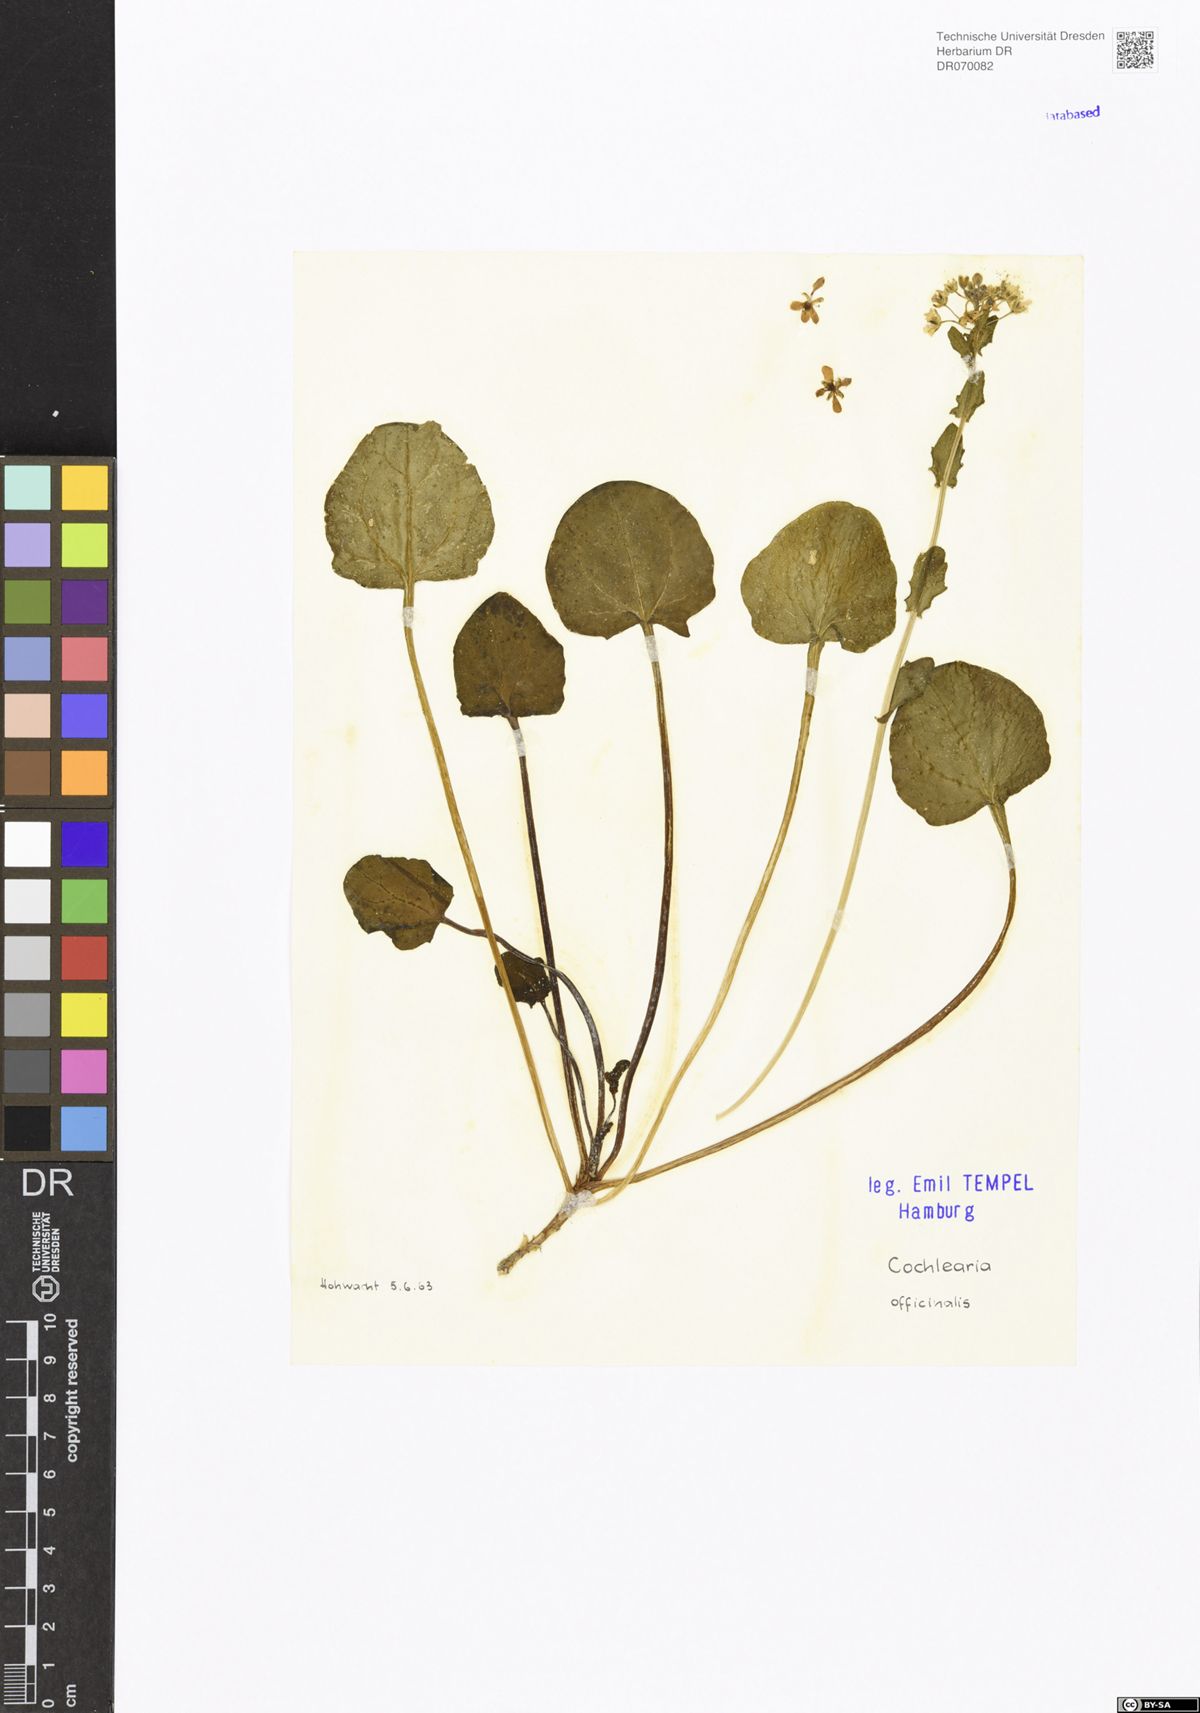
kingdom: Plantae
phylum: Tracheophyta
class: Magnoliopsida
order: Brassicales
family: Brassicaceae
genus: Cochlearia
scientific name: Cochlearia officinalis
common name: Scurvy-grass
